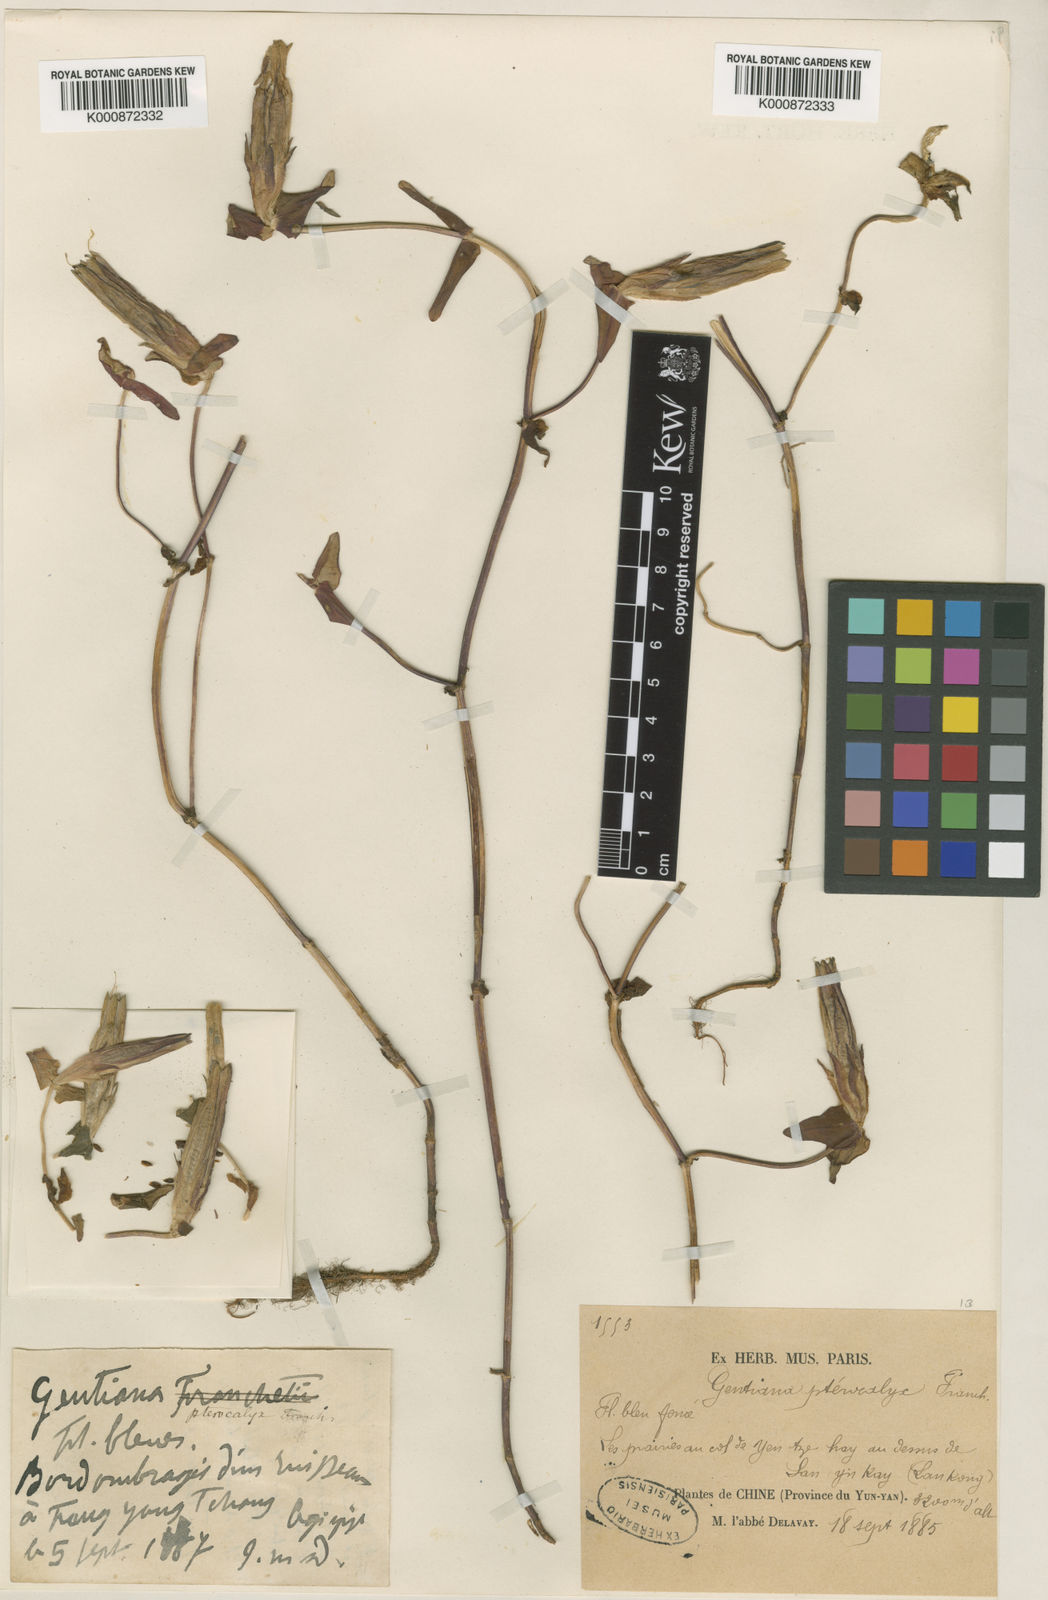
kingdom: Plantae
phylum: Tracheophyta
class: Magnoliopsida
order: Gentianales
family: Gentianaceae
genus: Metagentiana
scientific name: Metagentiana pterocalyx
